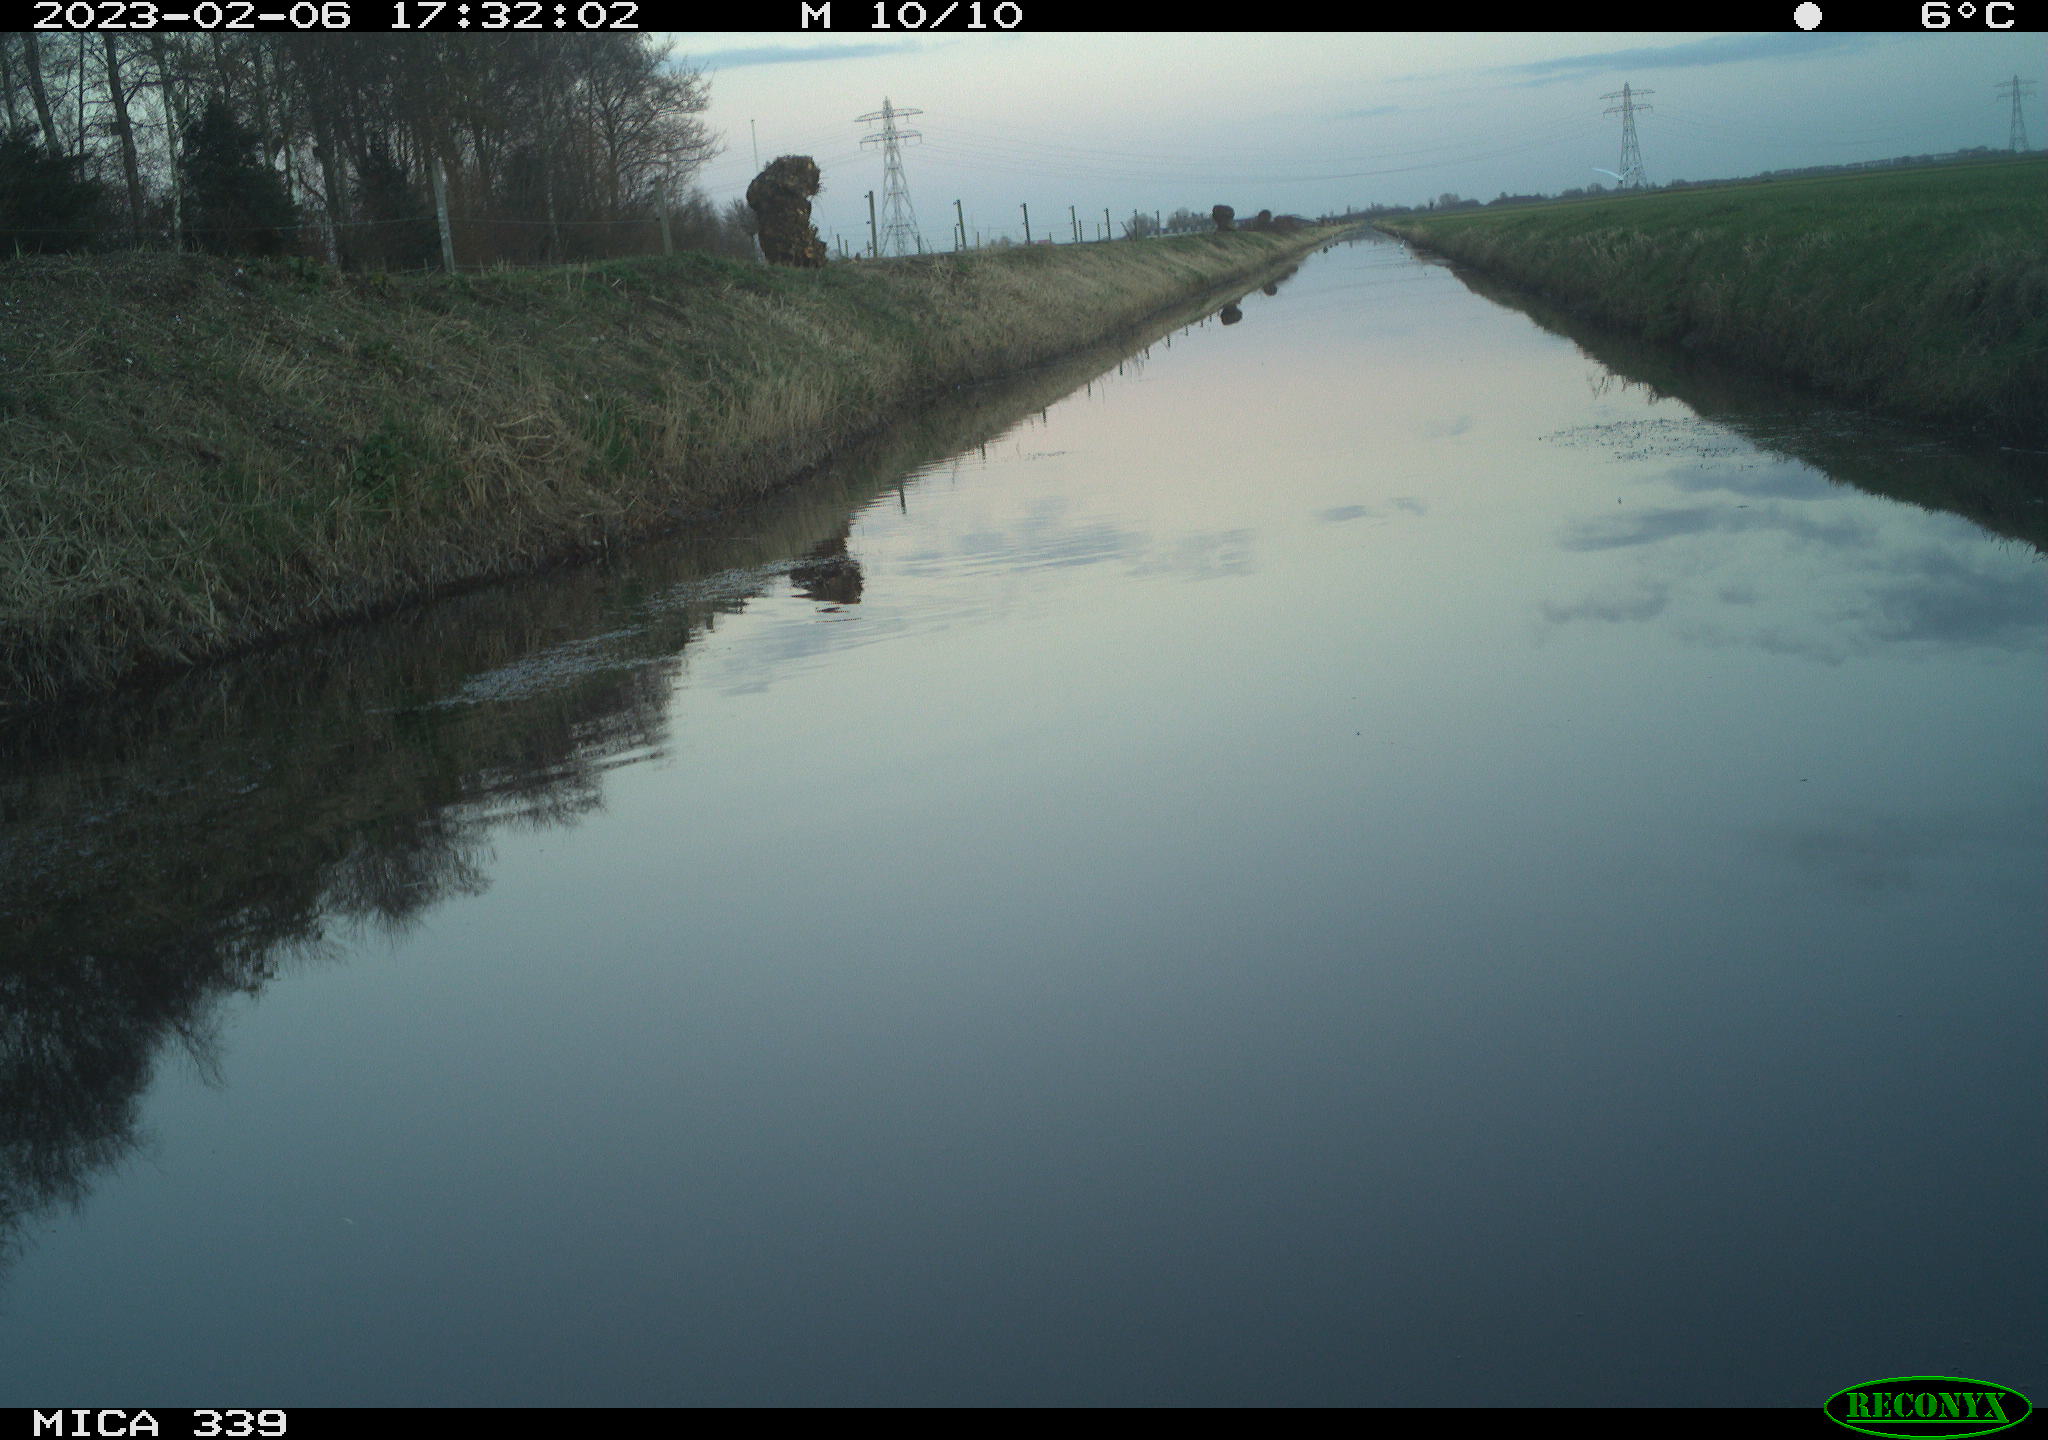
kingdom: Animalia
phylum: Chordata
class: Aves
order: Pelecaniformes
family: Ardeidae
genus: Ardea
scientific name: Ardea alba
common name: Great egret
